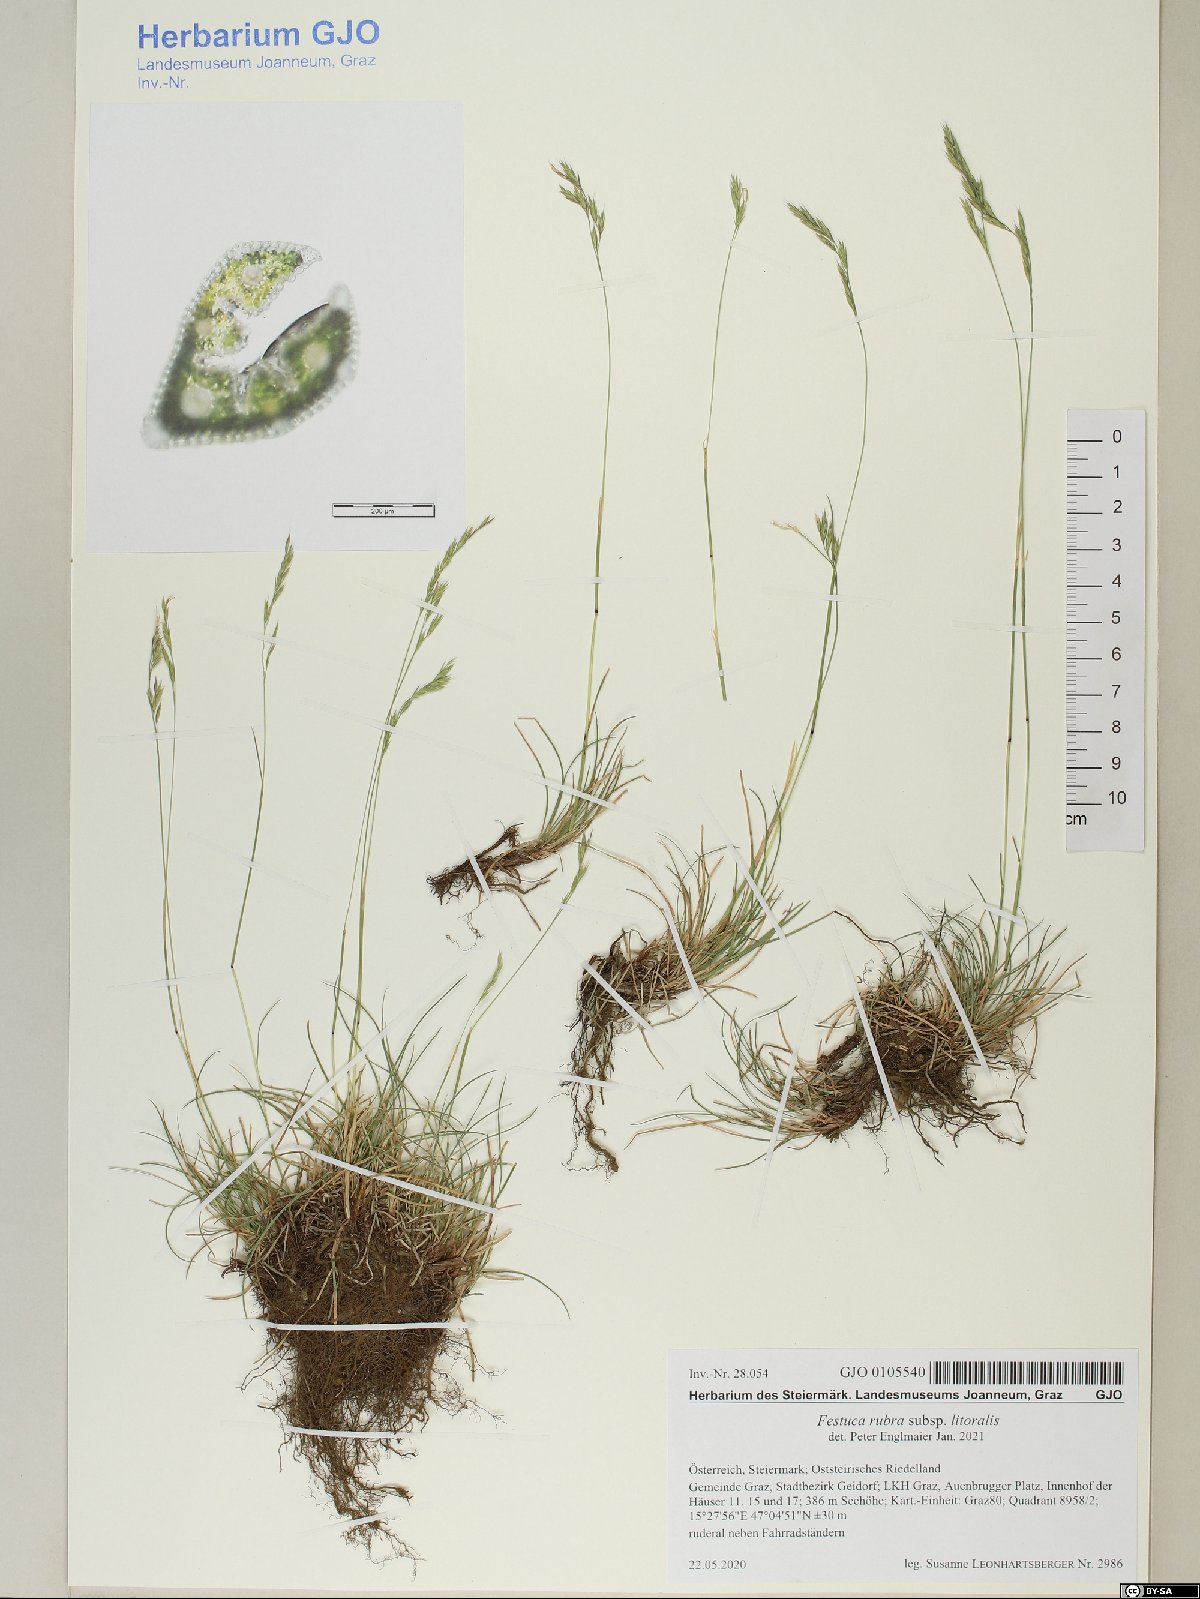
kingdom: Plantae
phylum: Tracheophyta
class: Liliopsida
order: Poales
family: Poaceae
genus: Festuca
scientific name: Festuca rubra
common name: Red fescue
